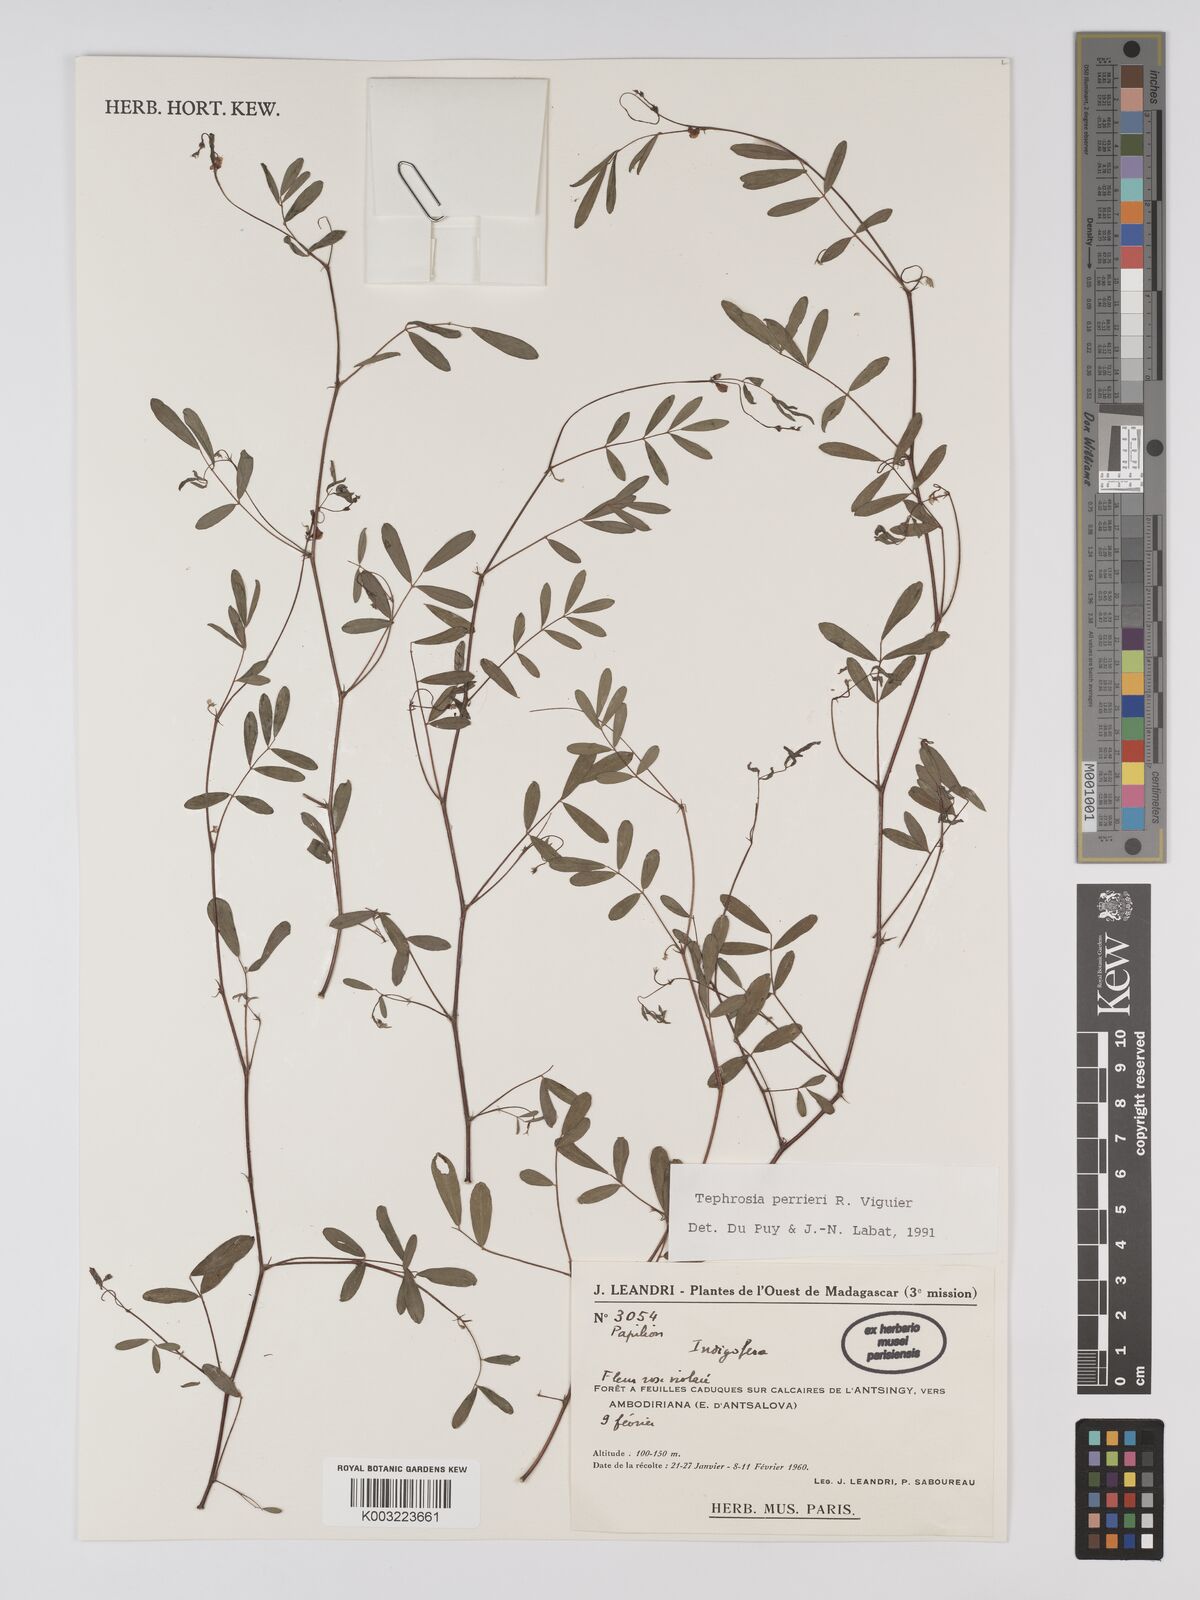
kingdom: Plantae
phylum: Tracheophyta
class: Magnoliopsida
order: Fabales
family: Fabaceae
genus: Tephrosia
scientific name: Tephrosia perrieri
